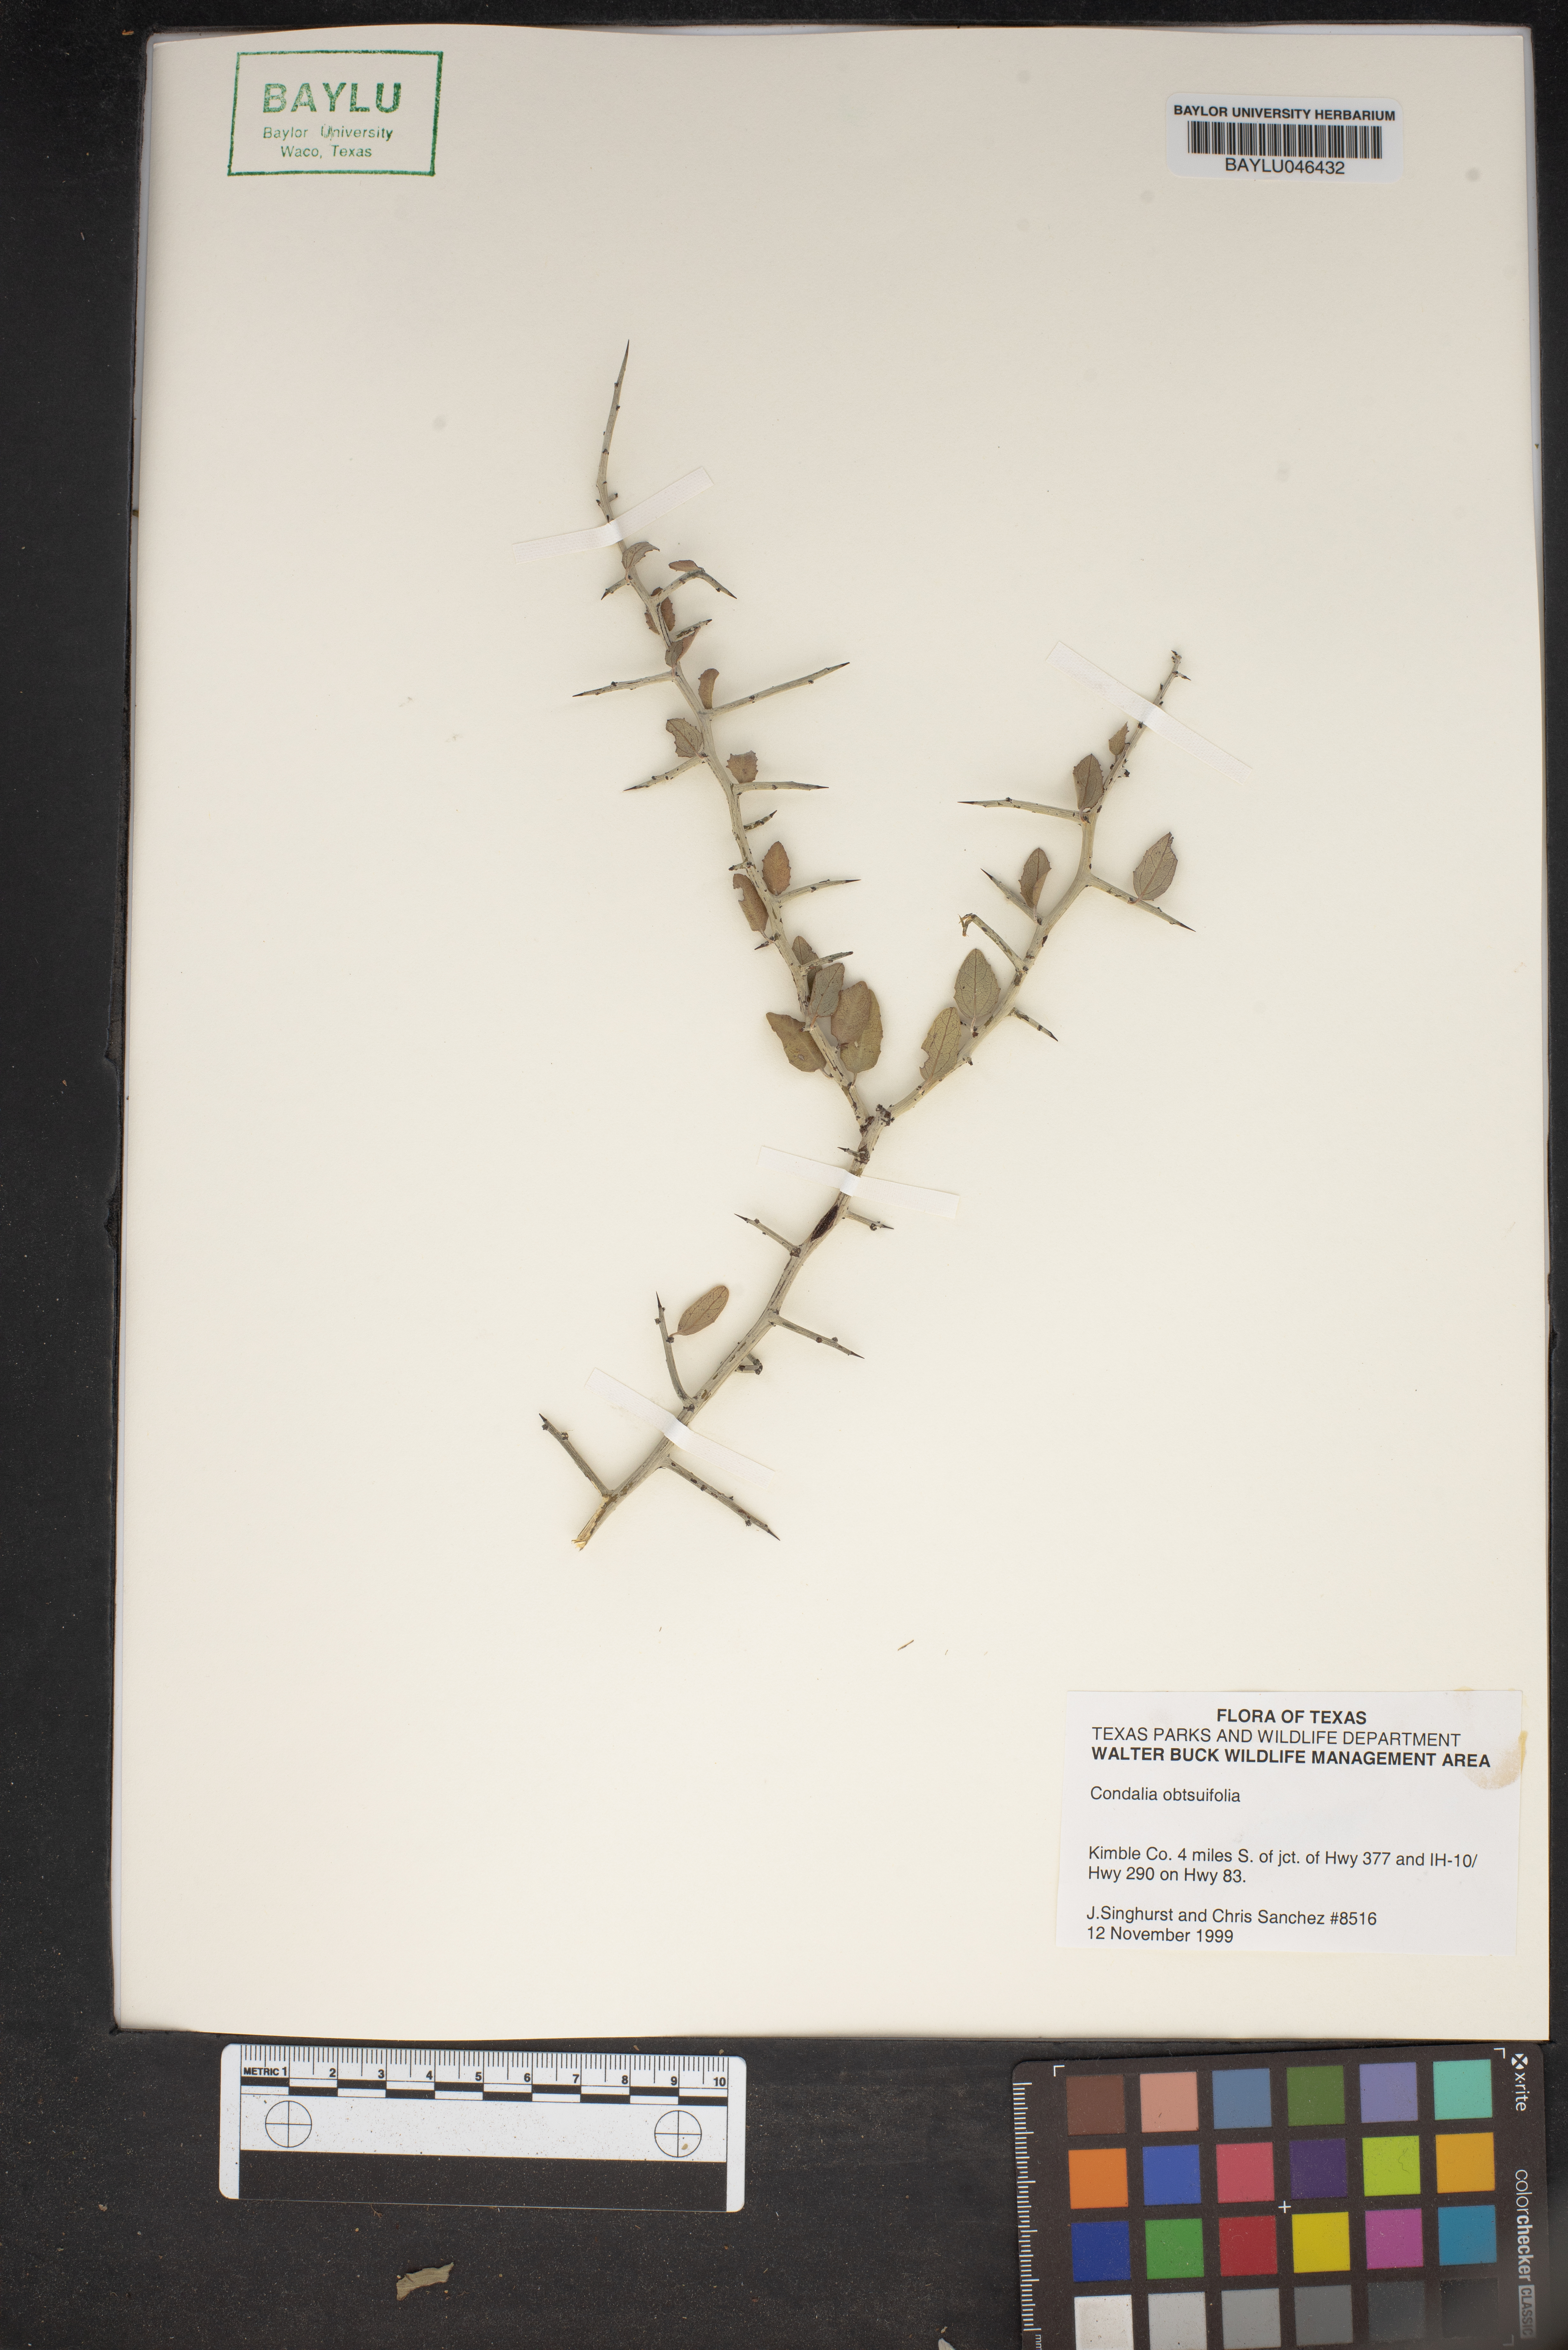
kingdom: Plantae
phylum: Tracheophyta
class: Magnoliopsida
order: Rosales
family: Rhamnaceae
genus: Sarcomphalus
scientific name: Sarcomphalus obtusifolius
